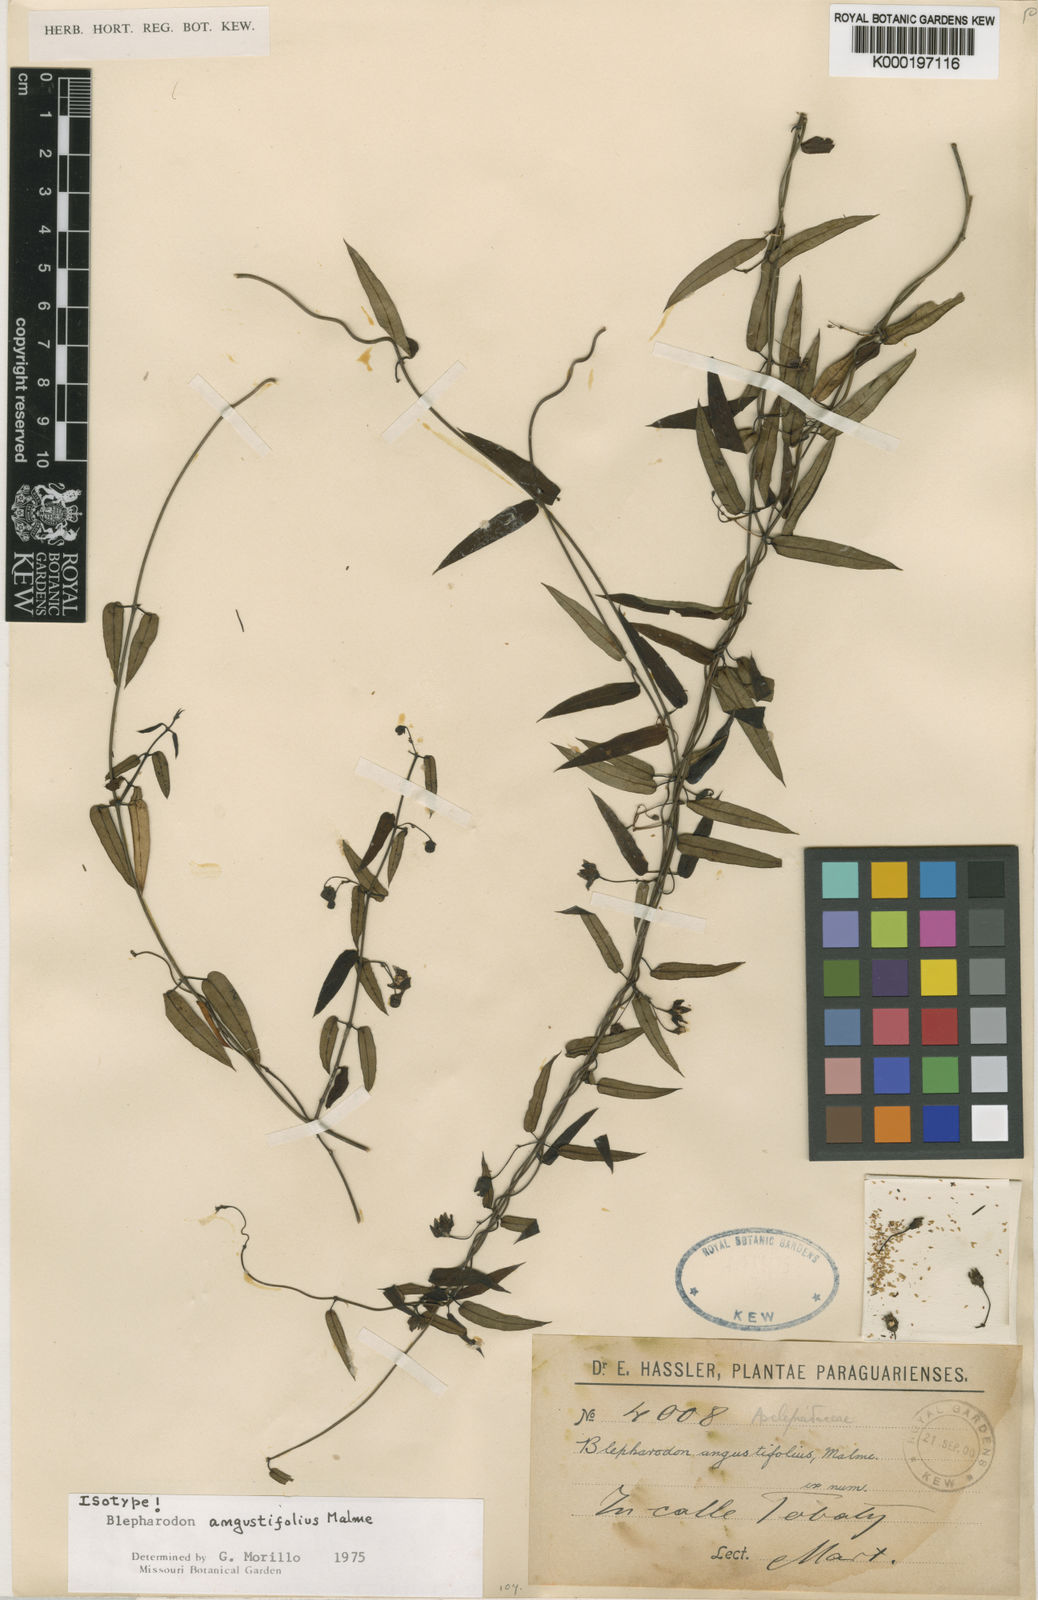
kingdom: Plantae
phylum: Tracheophyta
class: Magnoliopsida
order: Gentianales
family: Apocynaceae
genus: Blepharodon
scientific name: Blepharodon angustifolium
